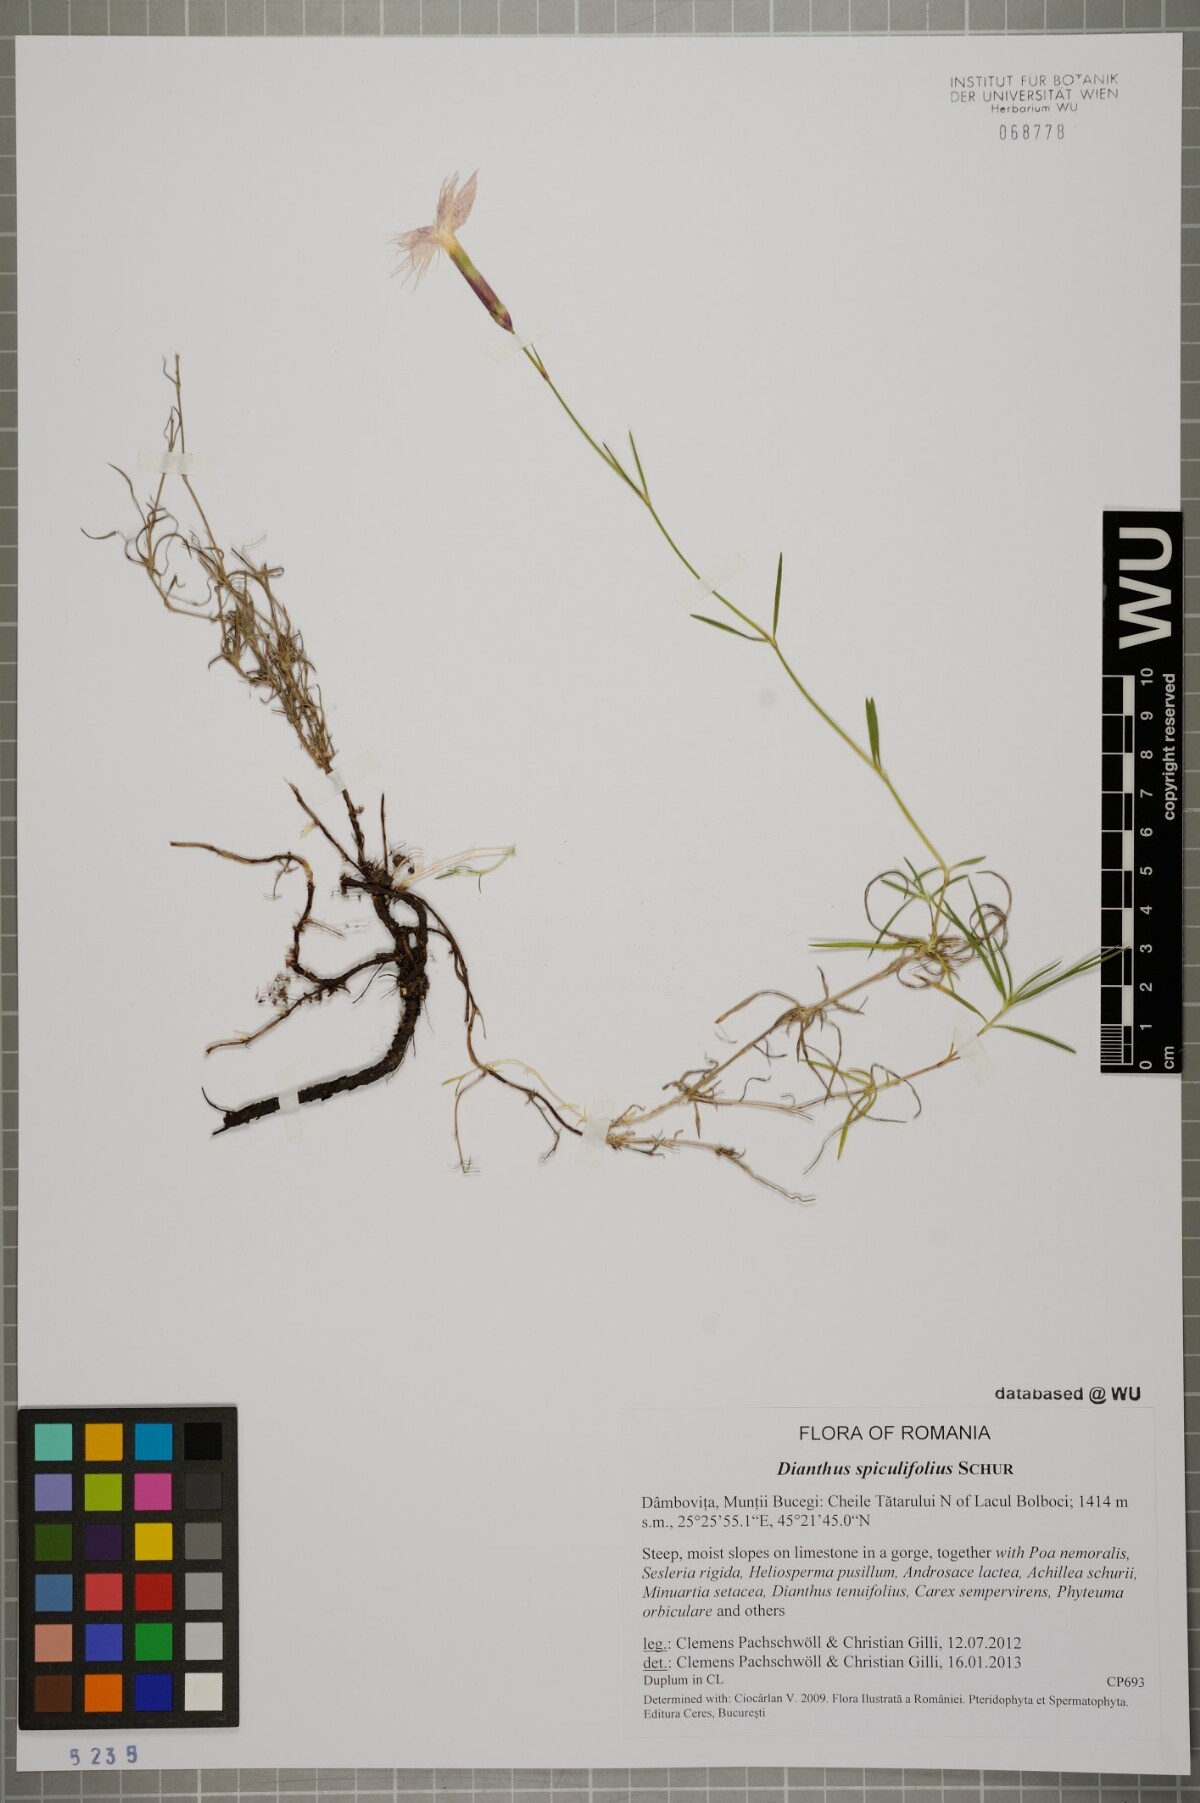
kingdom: Plantae
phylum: Tracheophyta
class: Magnoliopsida
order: Caryophyllales
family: Caryophyllaceae
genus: Dianthus
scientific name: Dianthus spiculifolius
